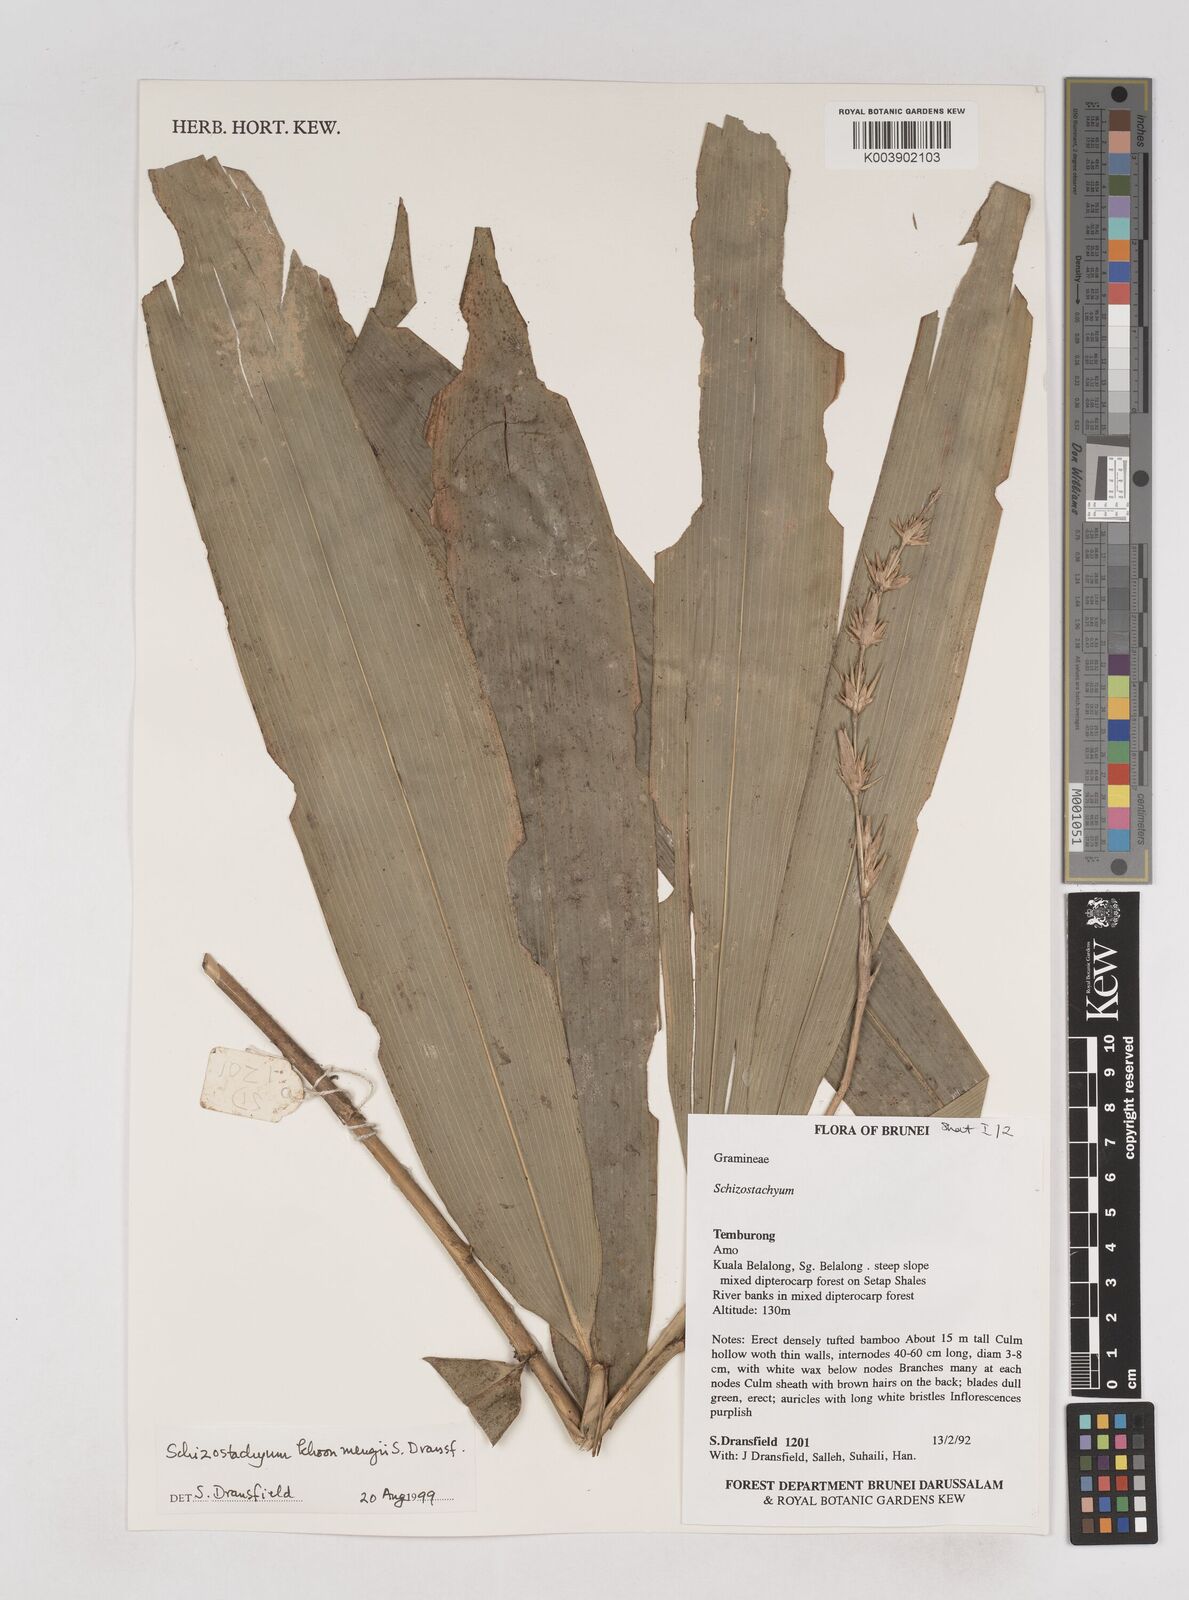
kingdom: Plantae
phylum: Tracheophyta
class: Liliopsida
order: Poales
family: Poaceae
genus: Schizostachyum
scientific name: Schizostachyum khoonmengii
